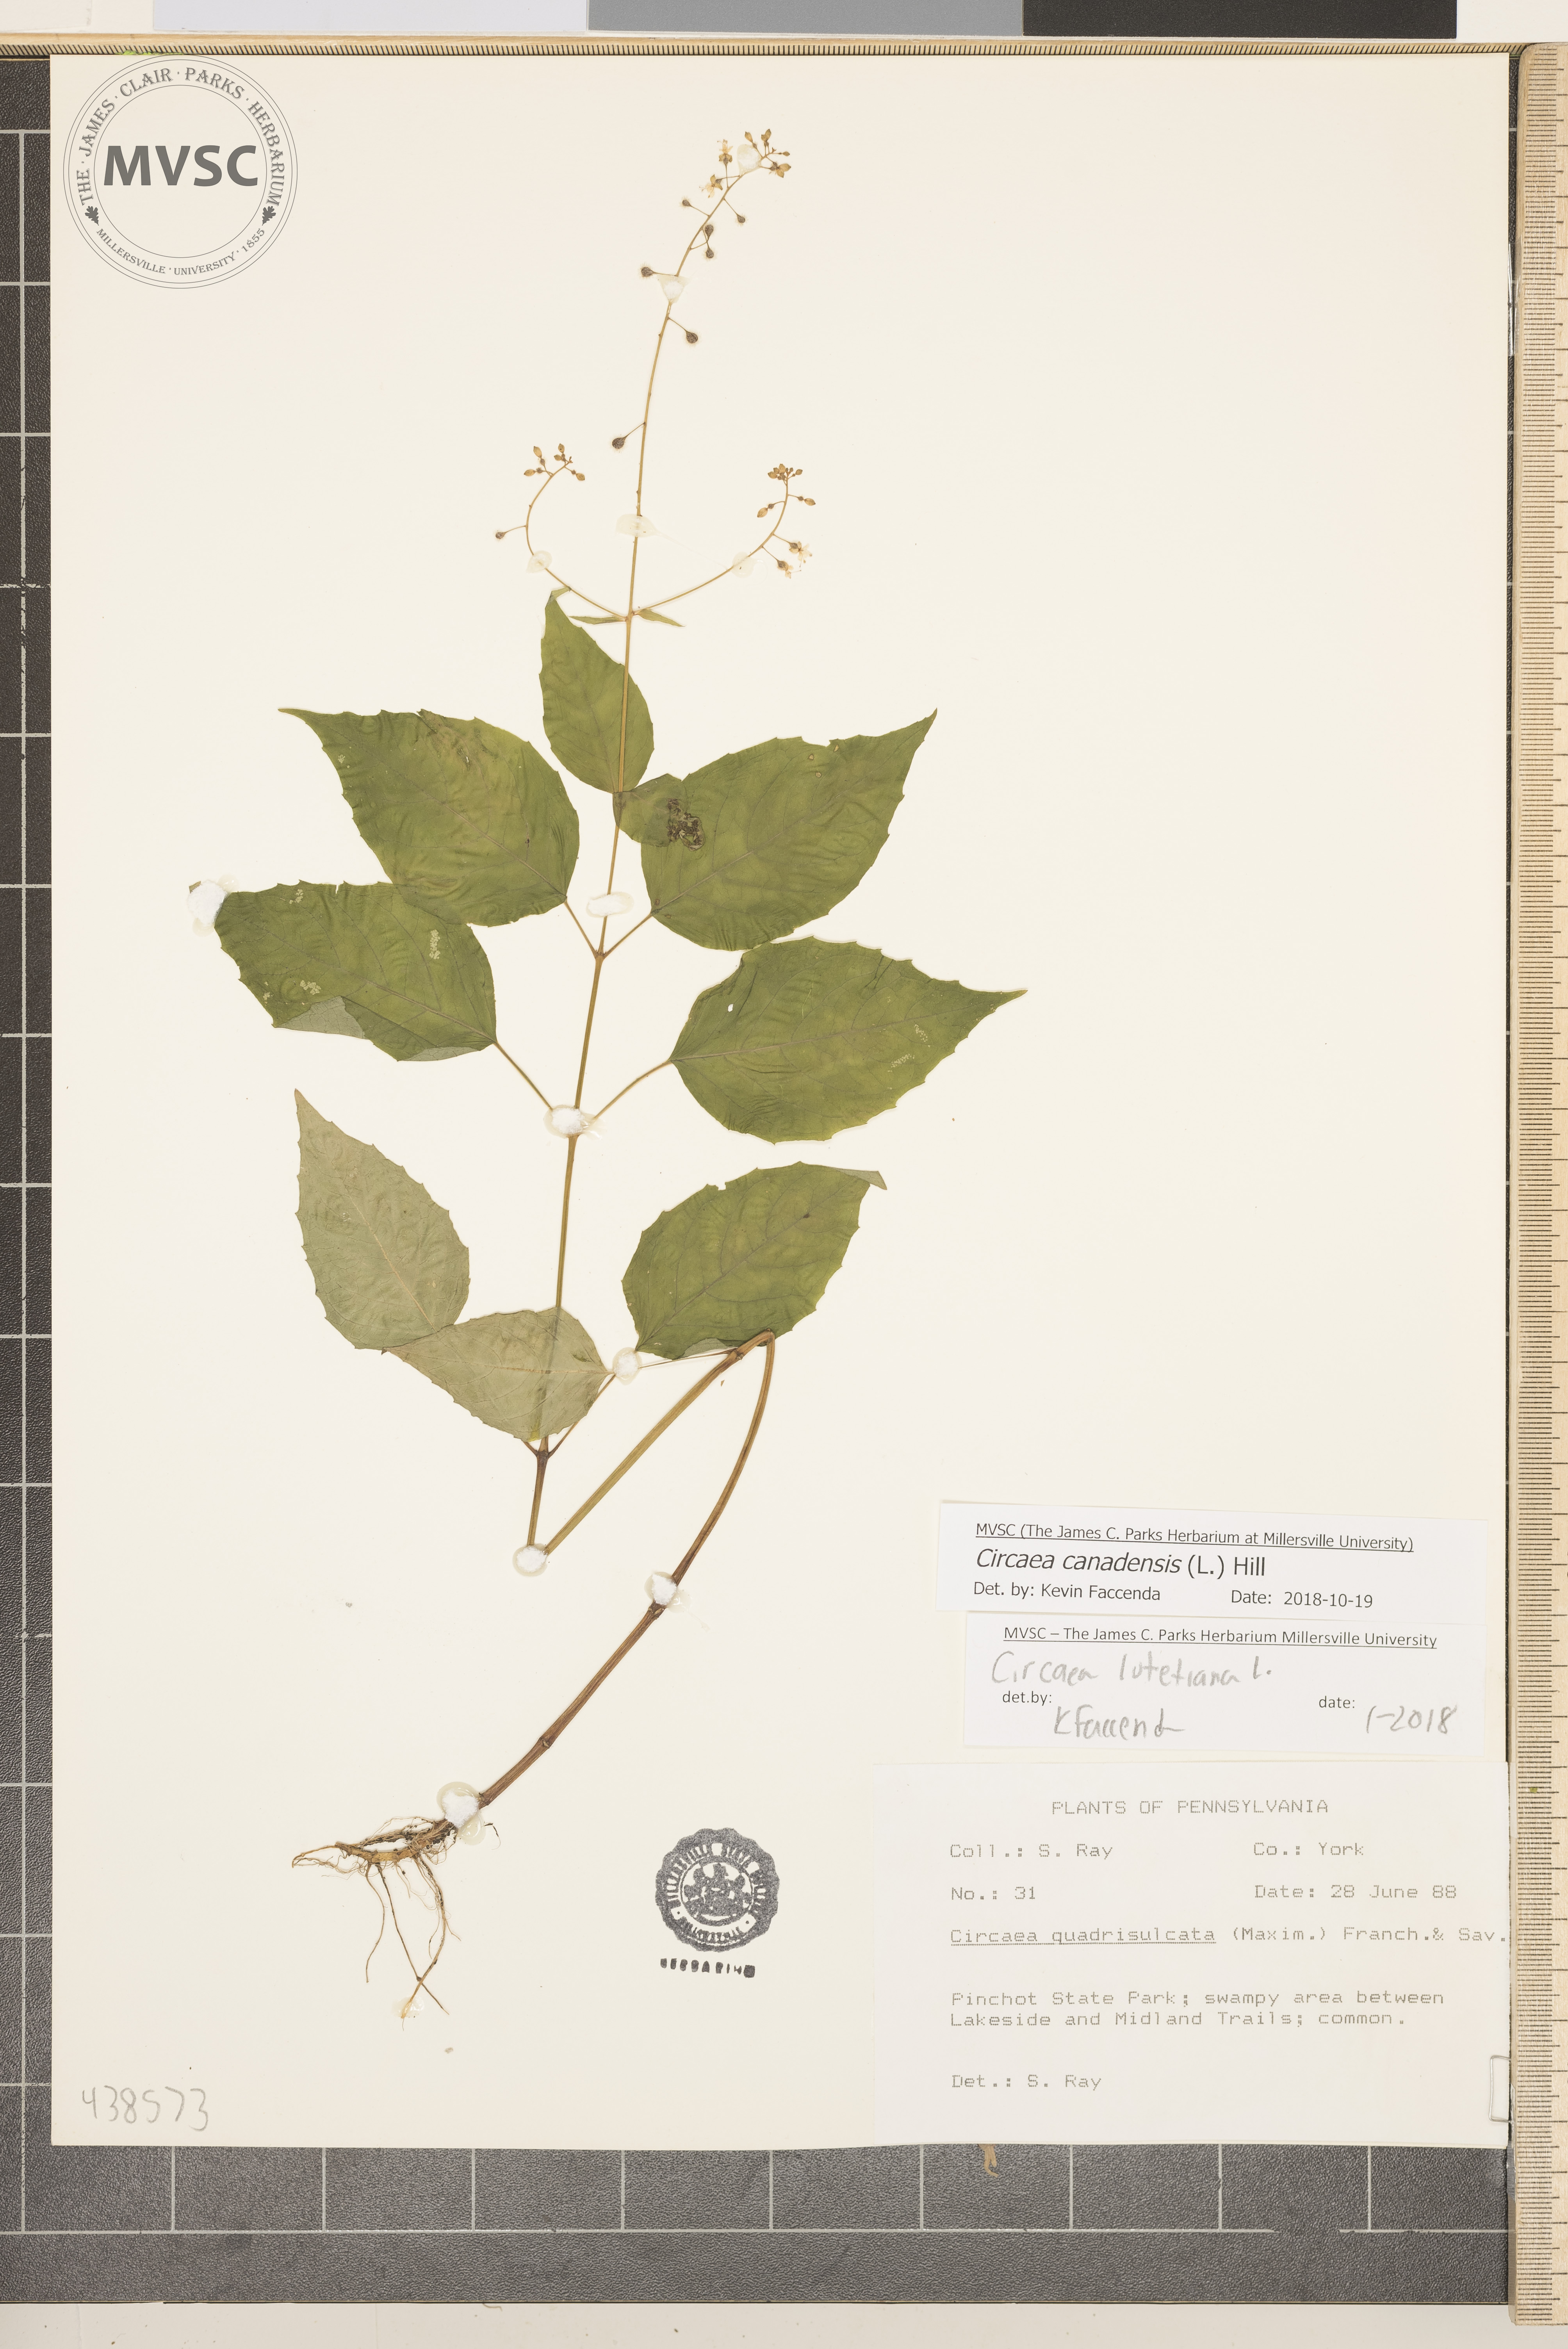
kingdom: Plantae
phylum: Tracheophyta
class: Magnoliopsida
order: Myrtales
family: Onagraceae
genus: Circaea
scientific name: Circaea canadensis
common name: Broad-leaved enchanter's nightshade
